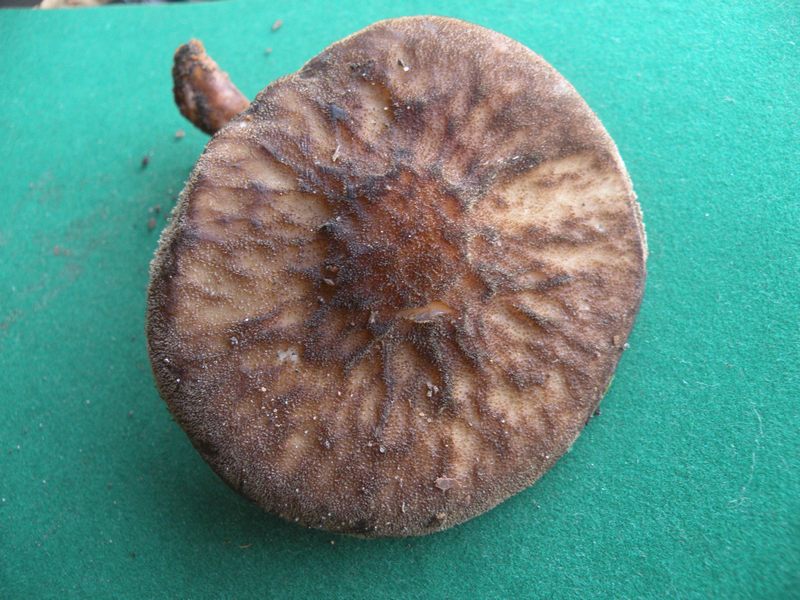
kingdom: Fungi
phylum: Basidiomycota
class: Agaricomycetes
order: Agaricales
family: Pluteaceae
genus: Pluteus
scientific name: Pluteus umbrosus
